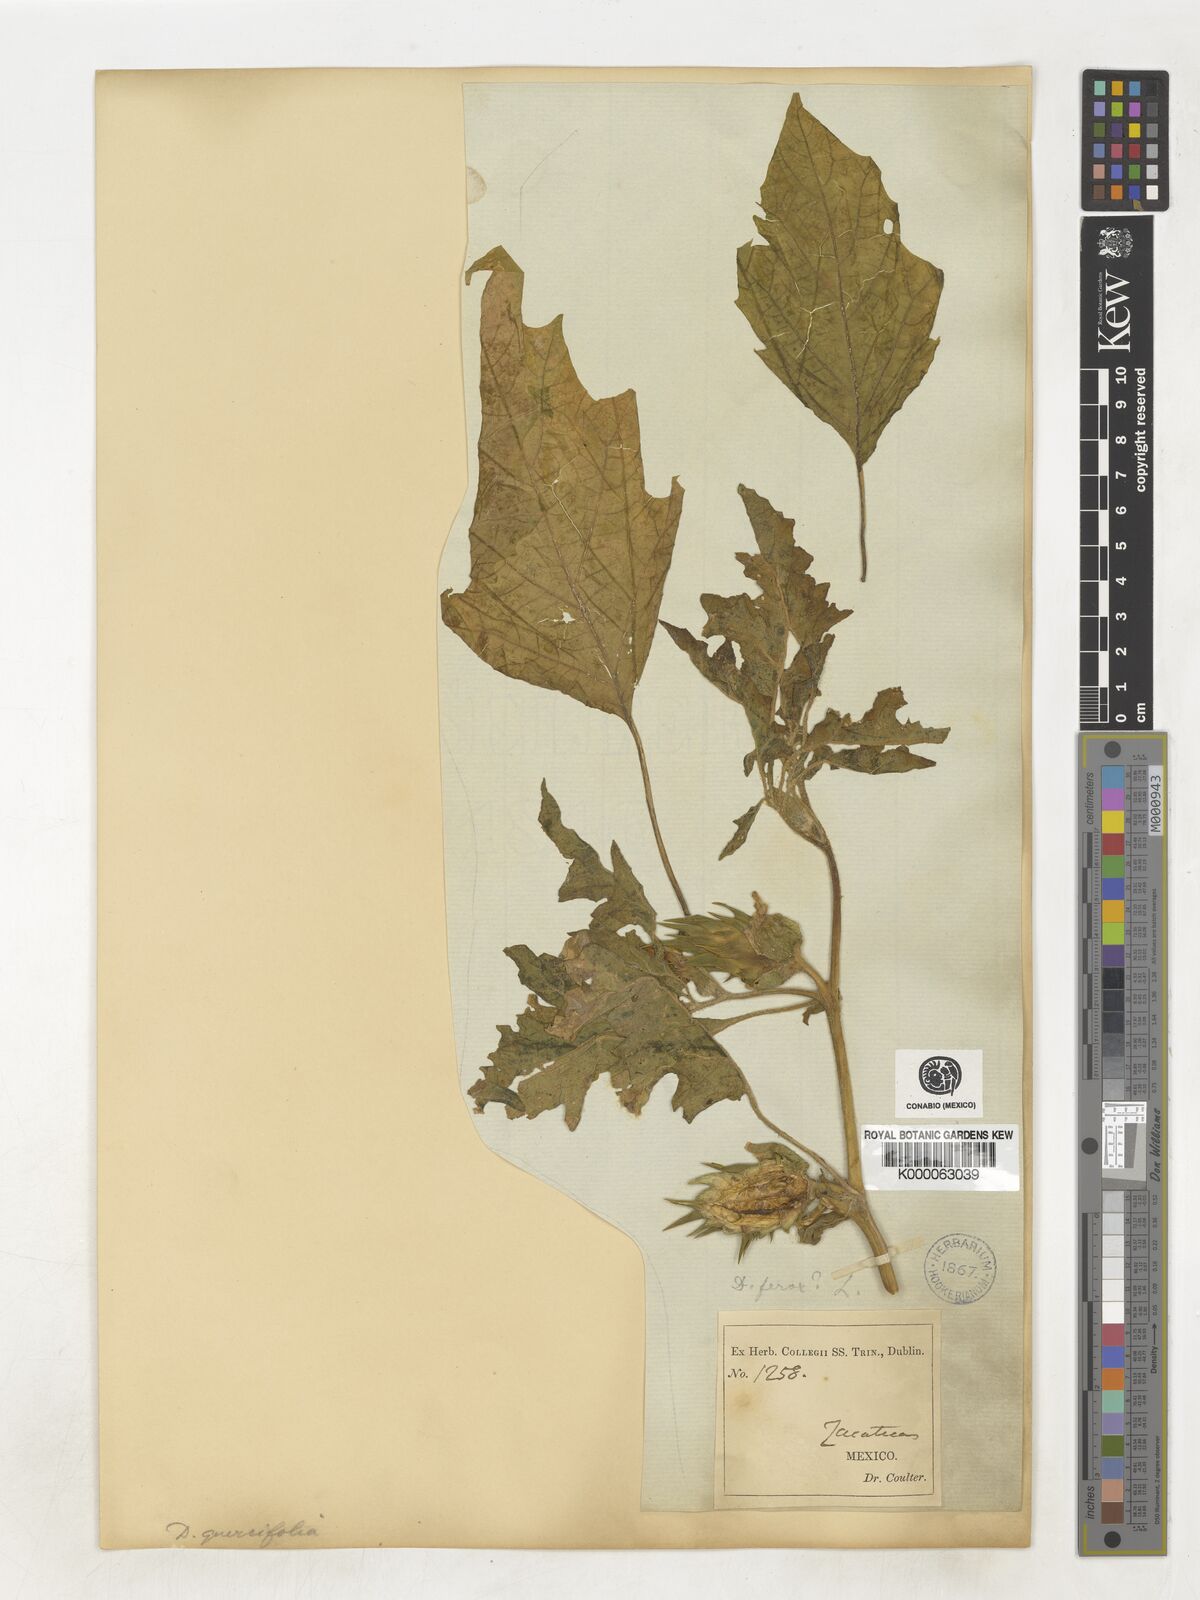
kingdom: Plantae
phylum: Tracheophyta
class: Magnoliopsida
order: Solanales
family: Solanaceae
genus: Datura
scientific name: Datura quercifolia
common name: Oak-leaf datura
